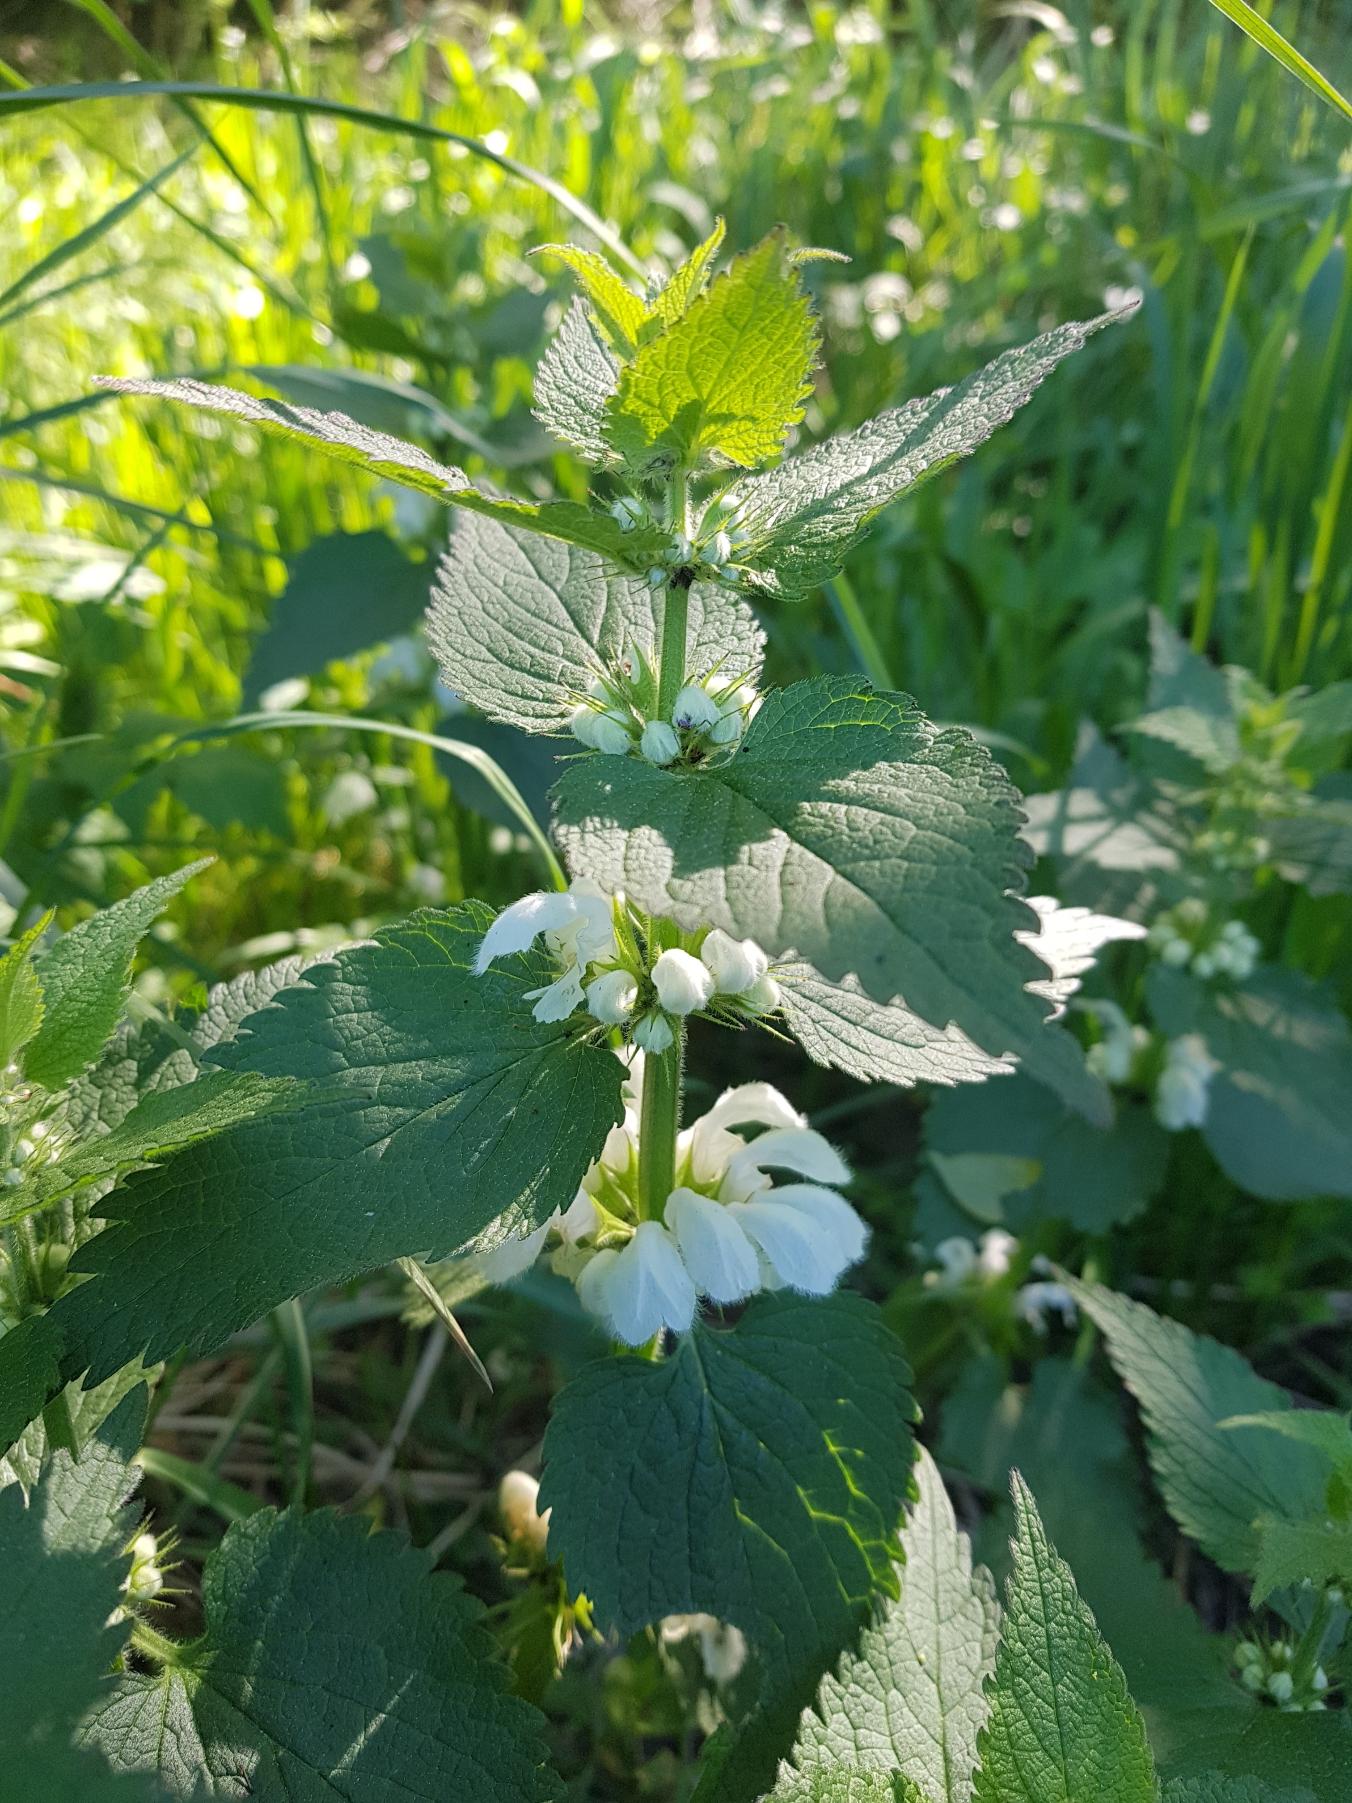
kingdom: Plantae
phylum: Tracheophyta
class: Magnoliopsida
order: Lamiales
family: Lamiaceae
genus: Lamium
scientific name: Lamium album
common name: Døvnælde
